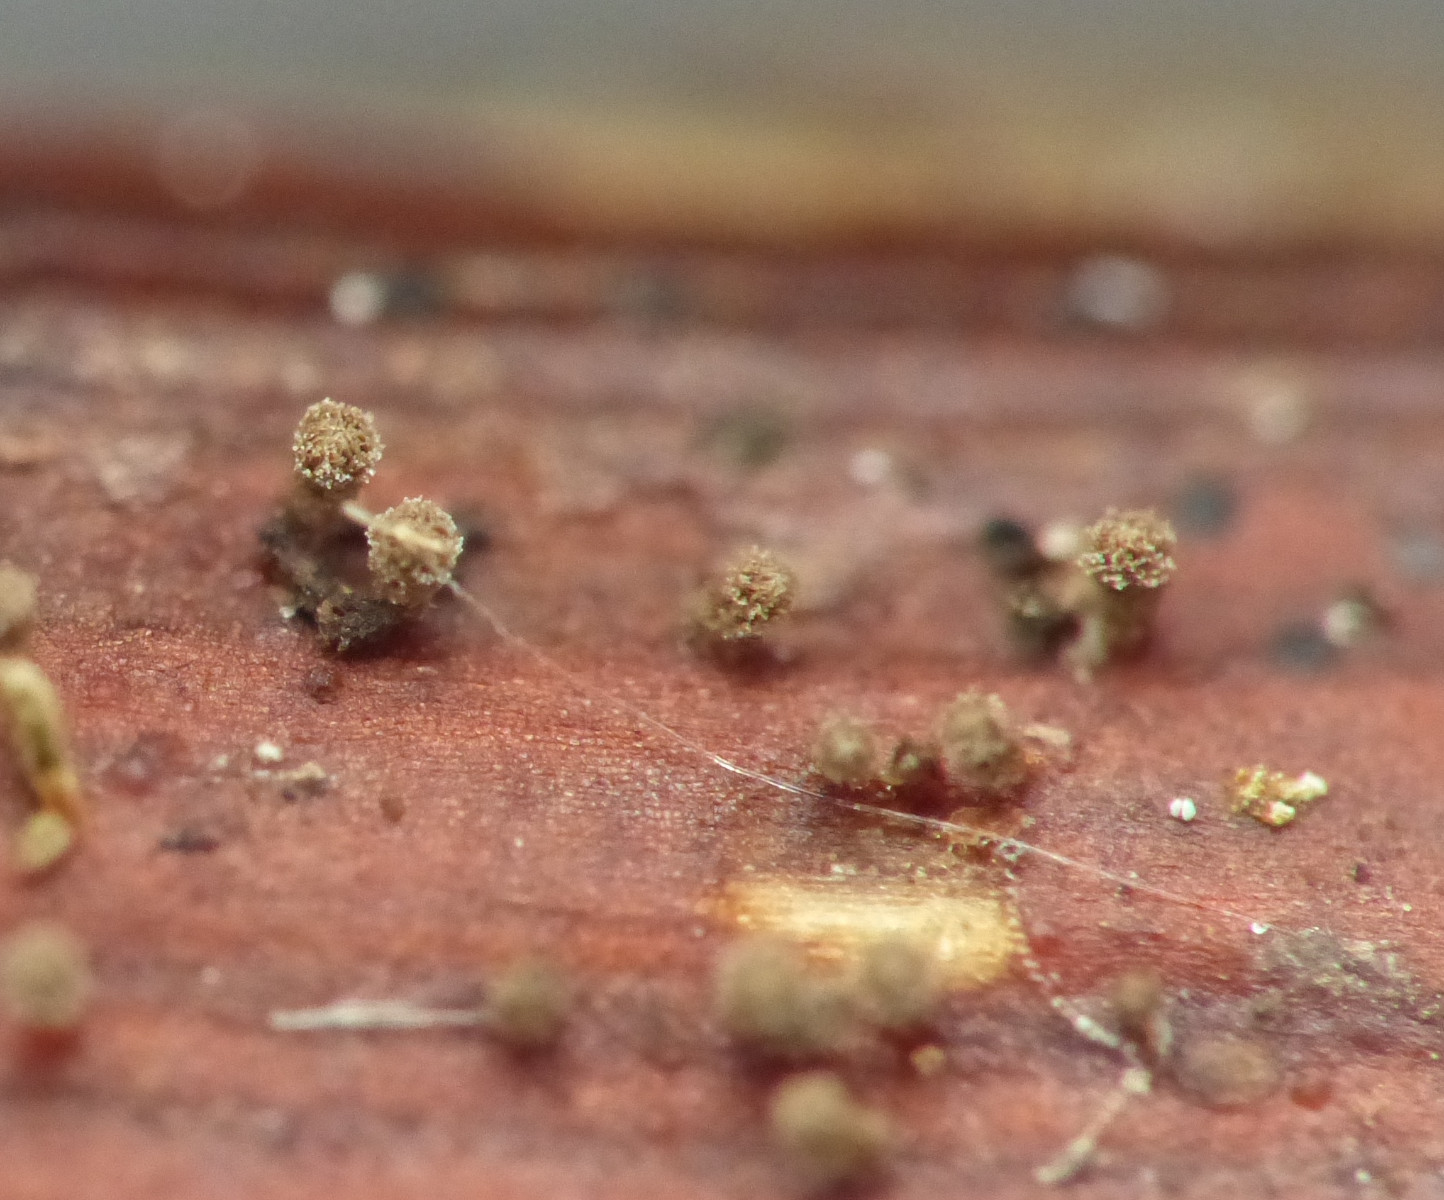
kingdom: Fungi
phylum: Ascomycota
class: Leotiomycetes
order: Helotiales
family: Lachnaceae
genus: Brunnipila
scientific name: Brunnipila clandestina
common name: hindbær-frynseskive
